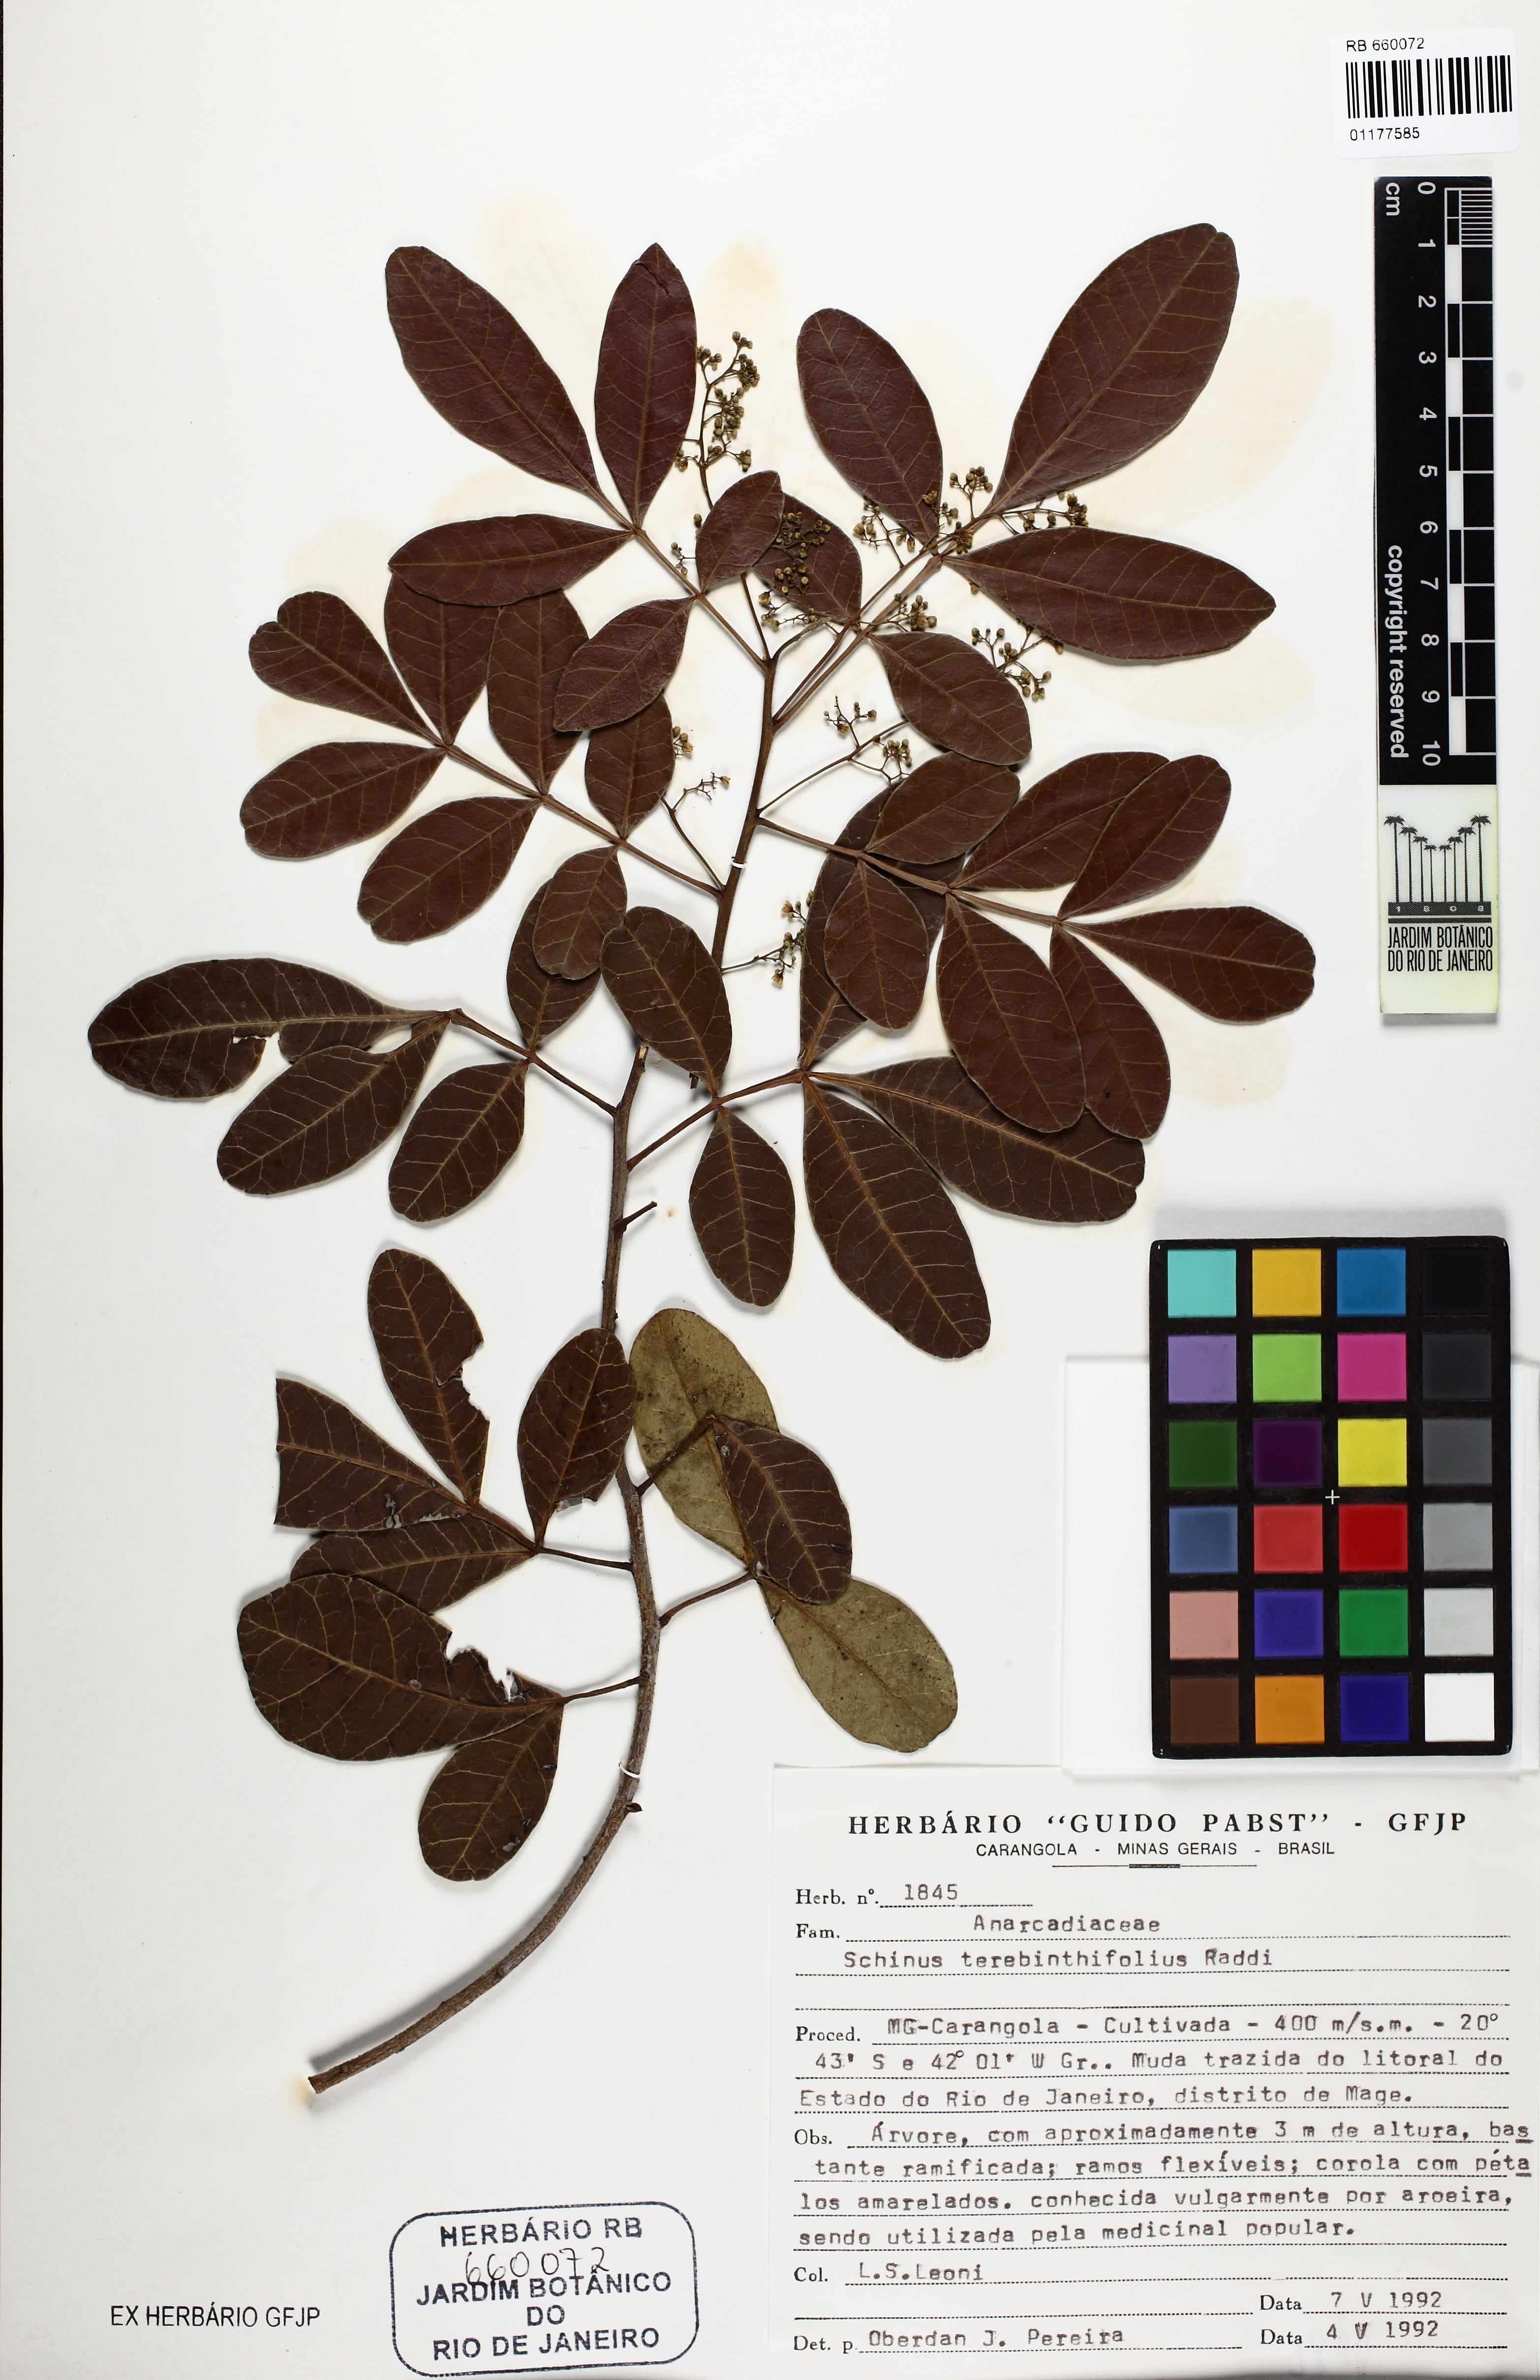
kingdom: Plantae
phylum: Tracheophyta
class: Magnoliopsida
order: Sapindales
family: Anacardiaceae
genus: Schinus
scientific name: Schinus terebinthifolia
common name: Brazilian peppertree
